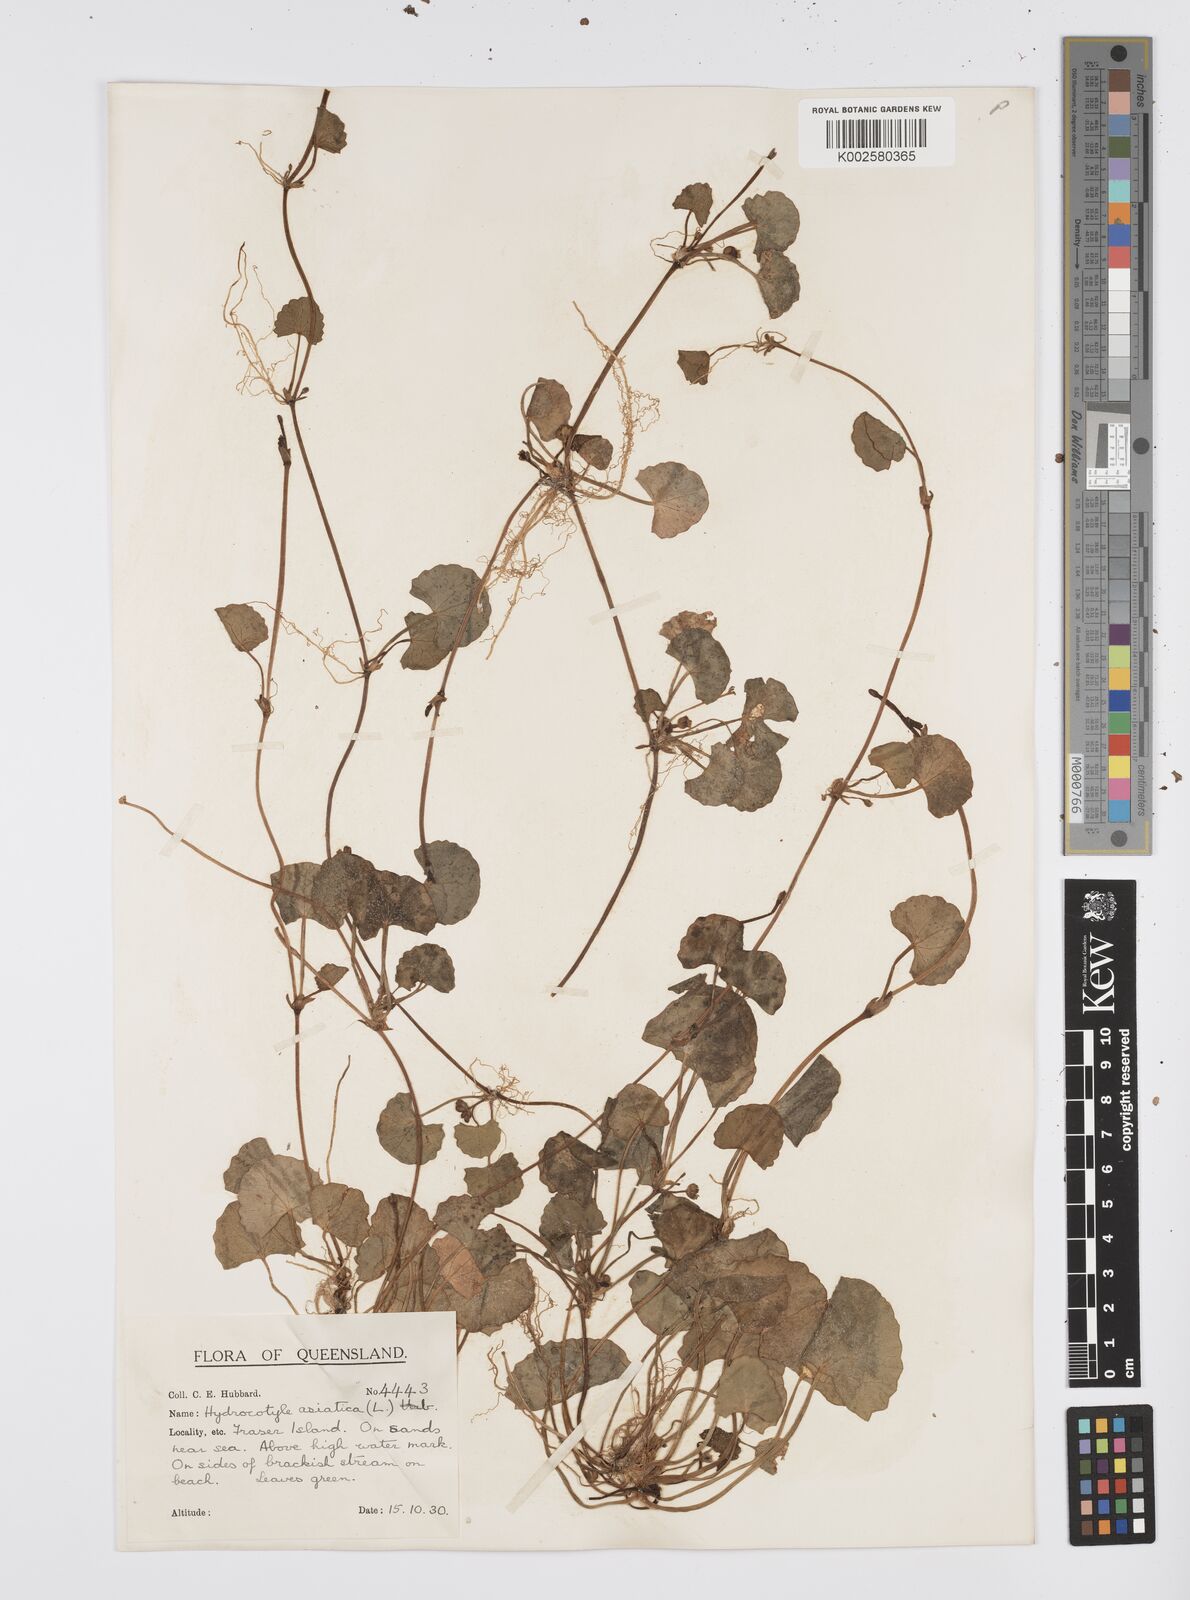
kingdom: Plantae
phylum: Tracheophyta
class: Magnoliopsida
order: Apiales
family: Apiaceae
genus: Centella
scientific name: Centella asiatica
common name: Spadeleaf
